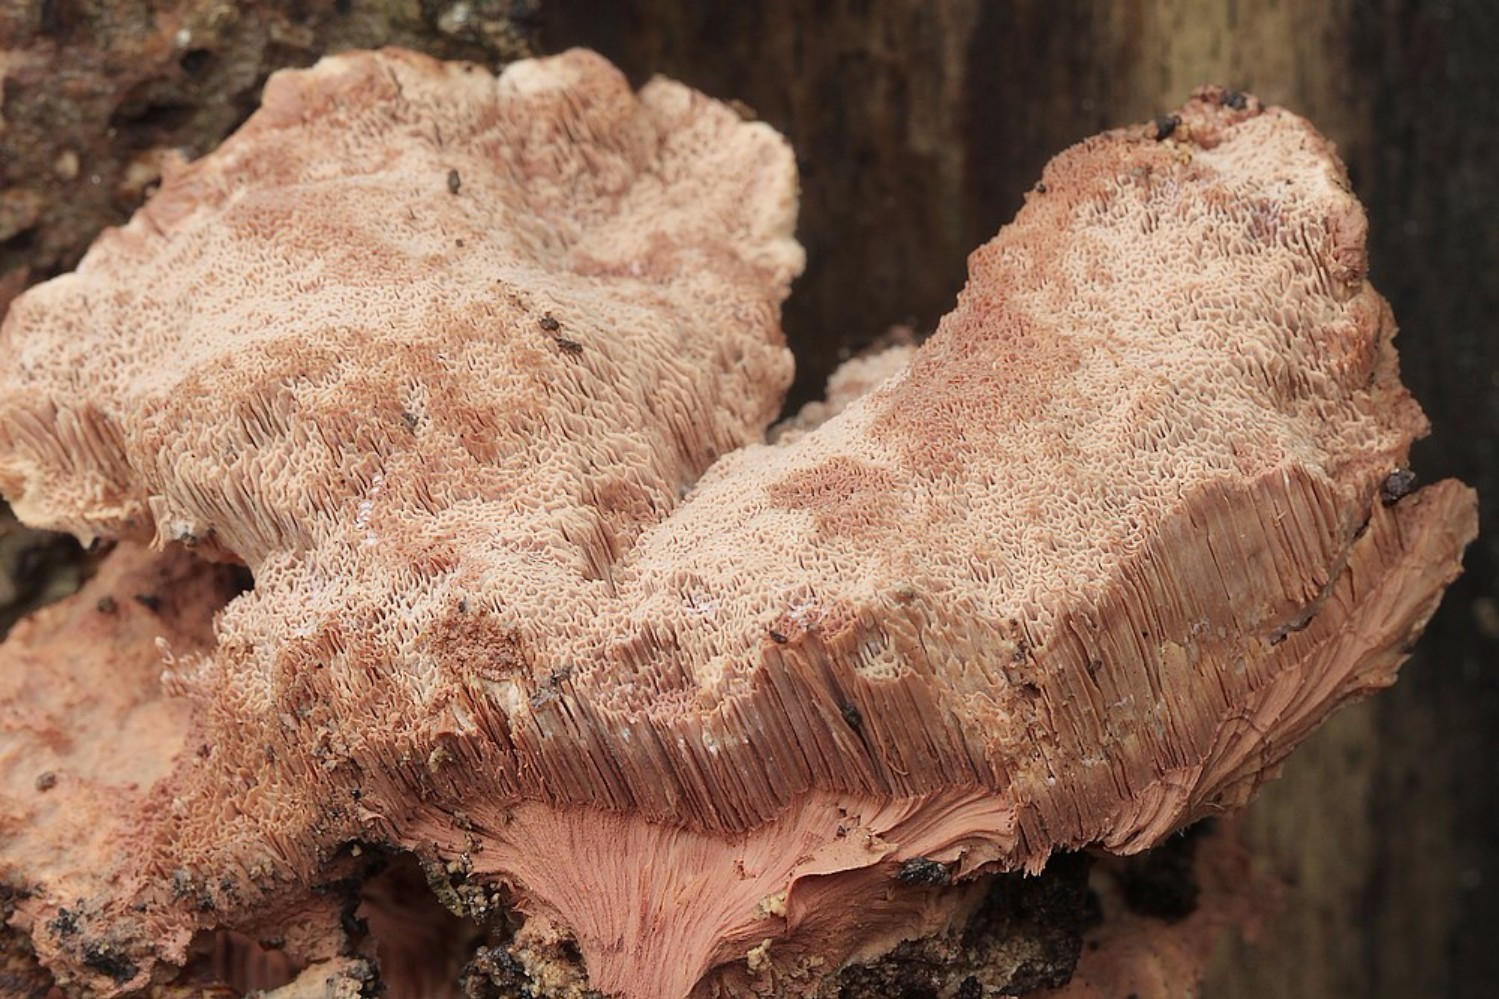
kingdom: Fungi
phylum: Basidiomycota
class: Agaricomycetes
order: Polyporales
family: Phanerochaetaceae
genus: Hapalopilus
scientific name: Hapalopilus rutilans
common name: rødlig okkerporesvamp
